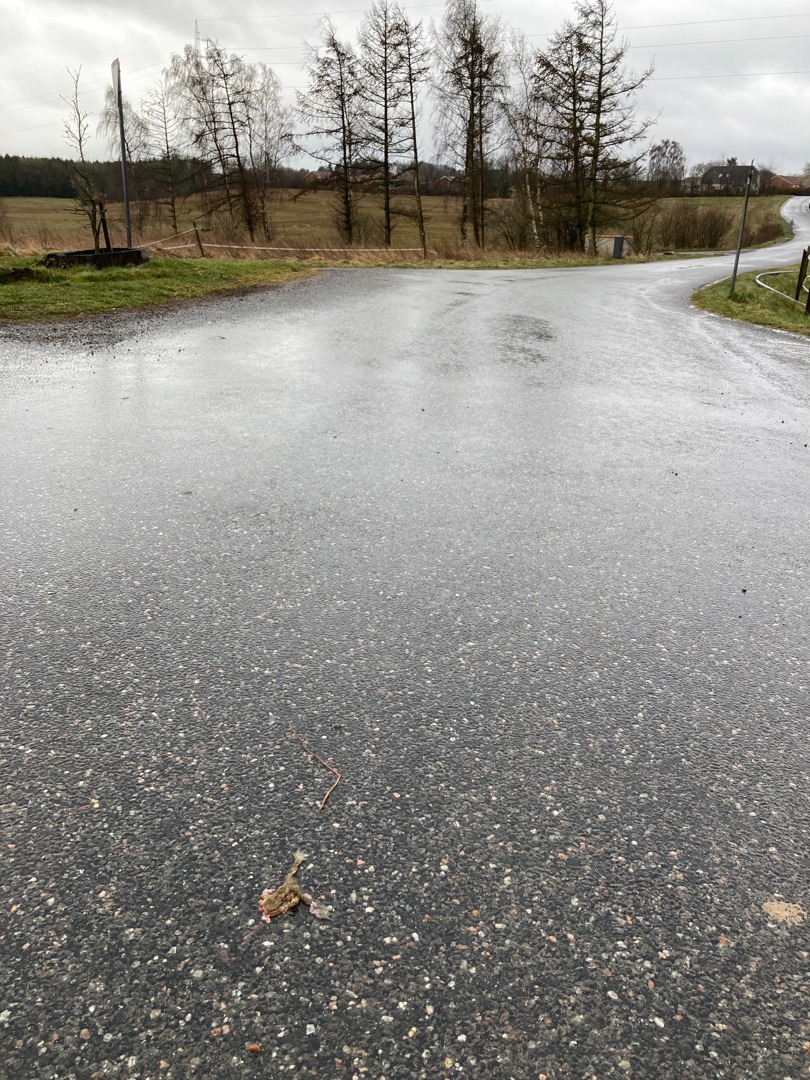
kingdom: Animalia
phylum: Chordata
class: Amphibia
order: Anura
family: Bufonidae
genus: Bufo
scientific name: Bufo bufo
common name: Skrubtudse
